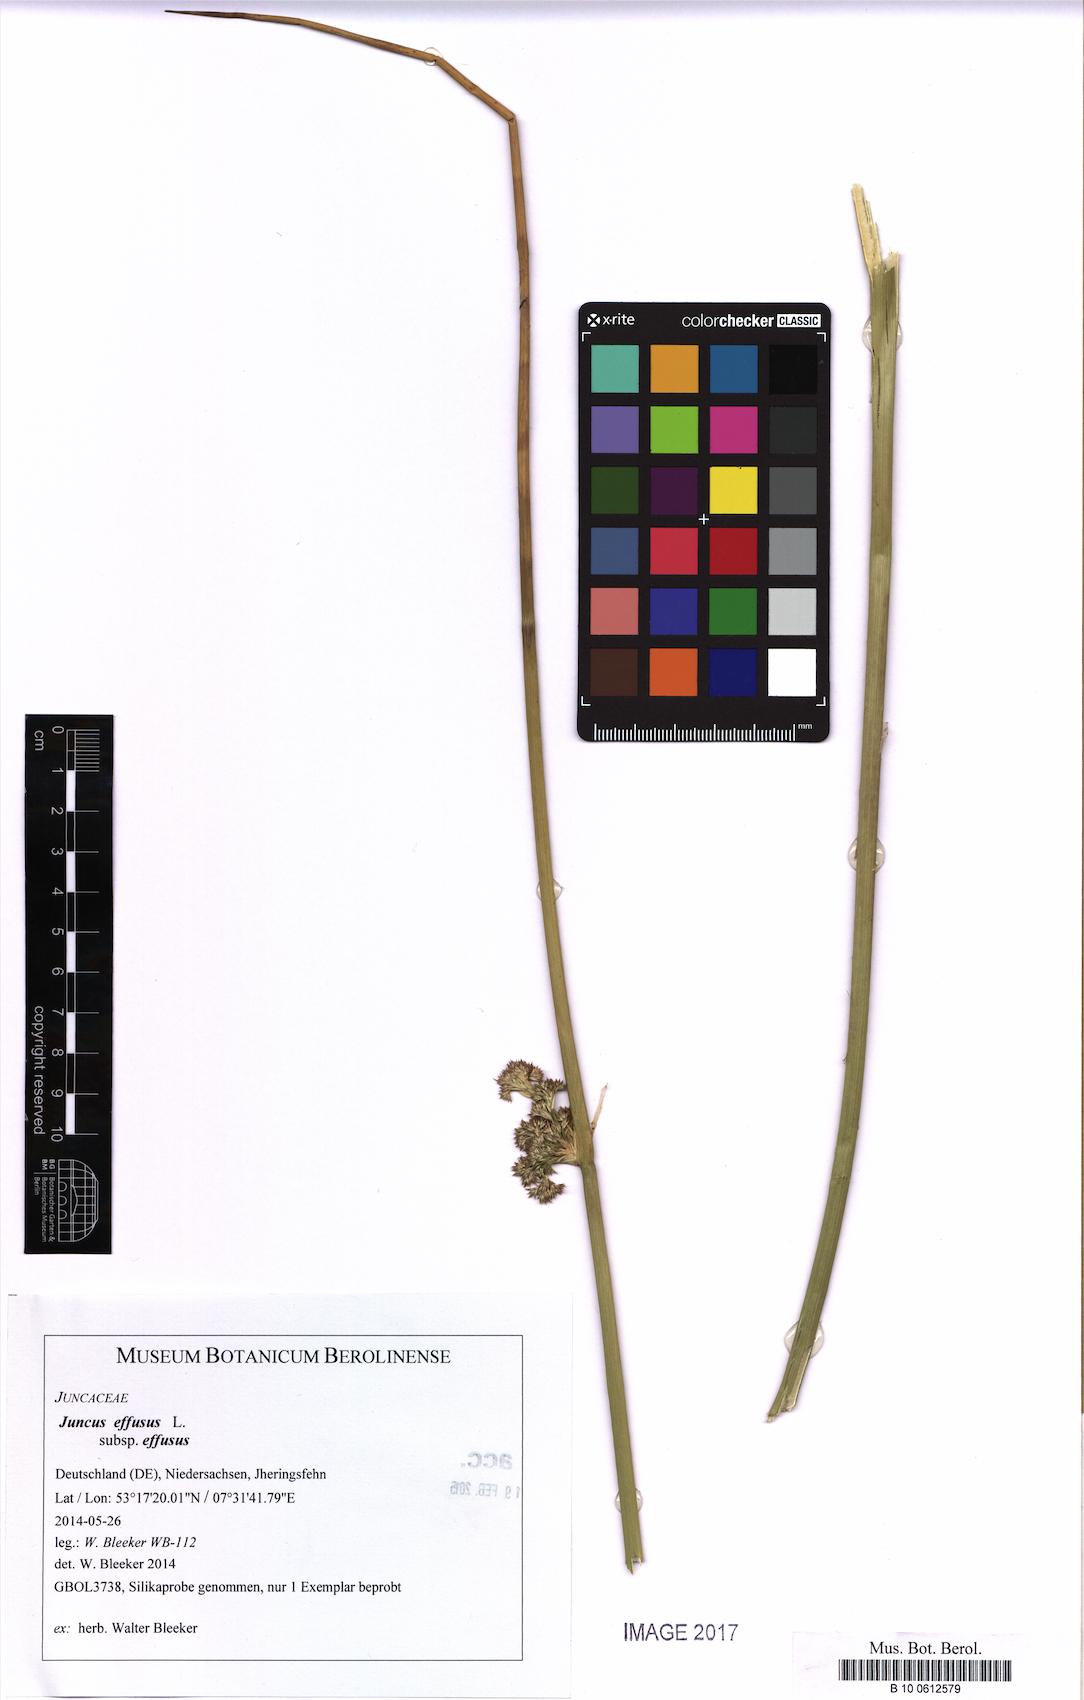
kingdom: Plantae
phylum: Tracheophyta
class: Liliopsida
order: Poales
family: Juncaceae
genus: Juncus
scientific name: Juncus effusus
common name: Soft rush
